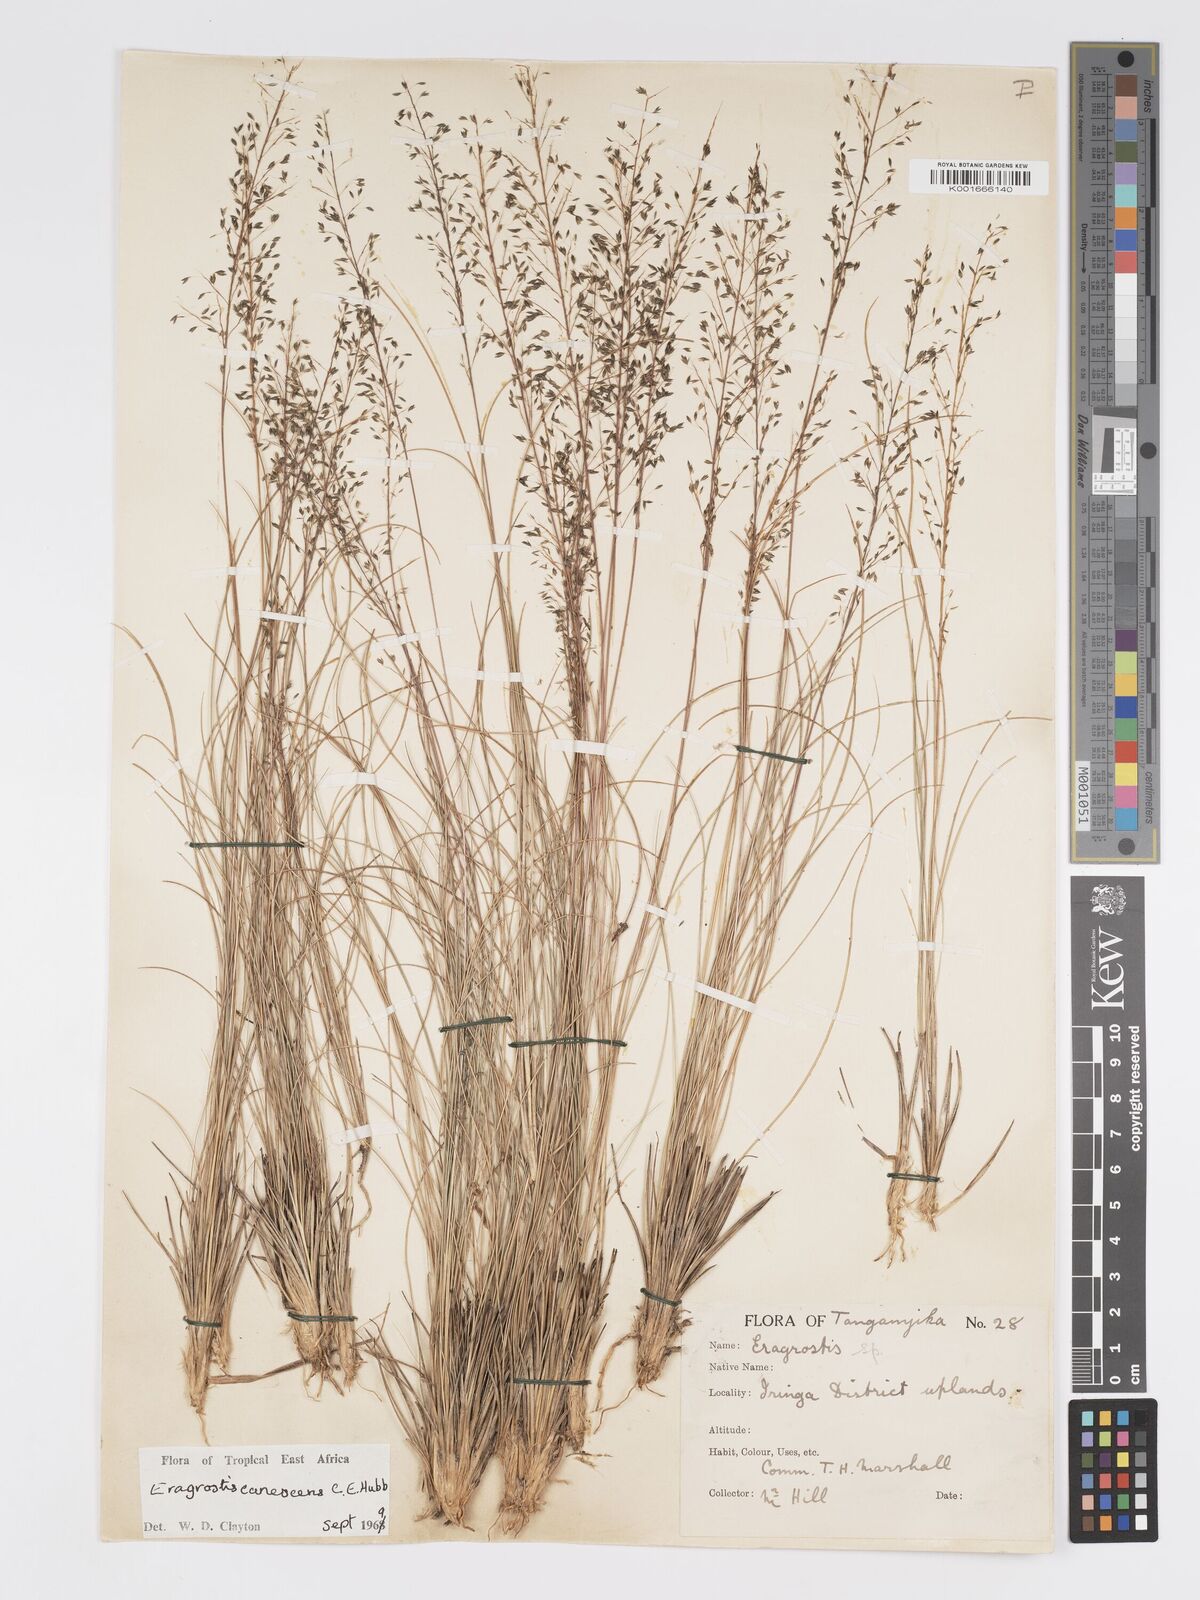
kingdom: Plantae
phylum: Tracheophyta
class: Liliopsida
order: Poales
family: Poaceae
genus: Eragrostis
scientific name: Eragrostis canescens
